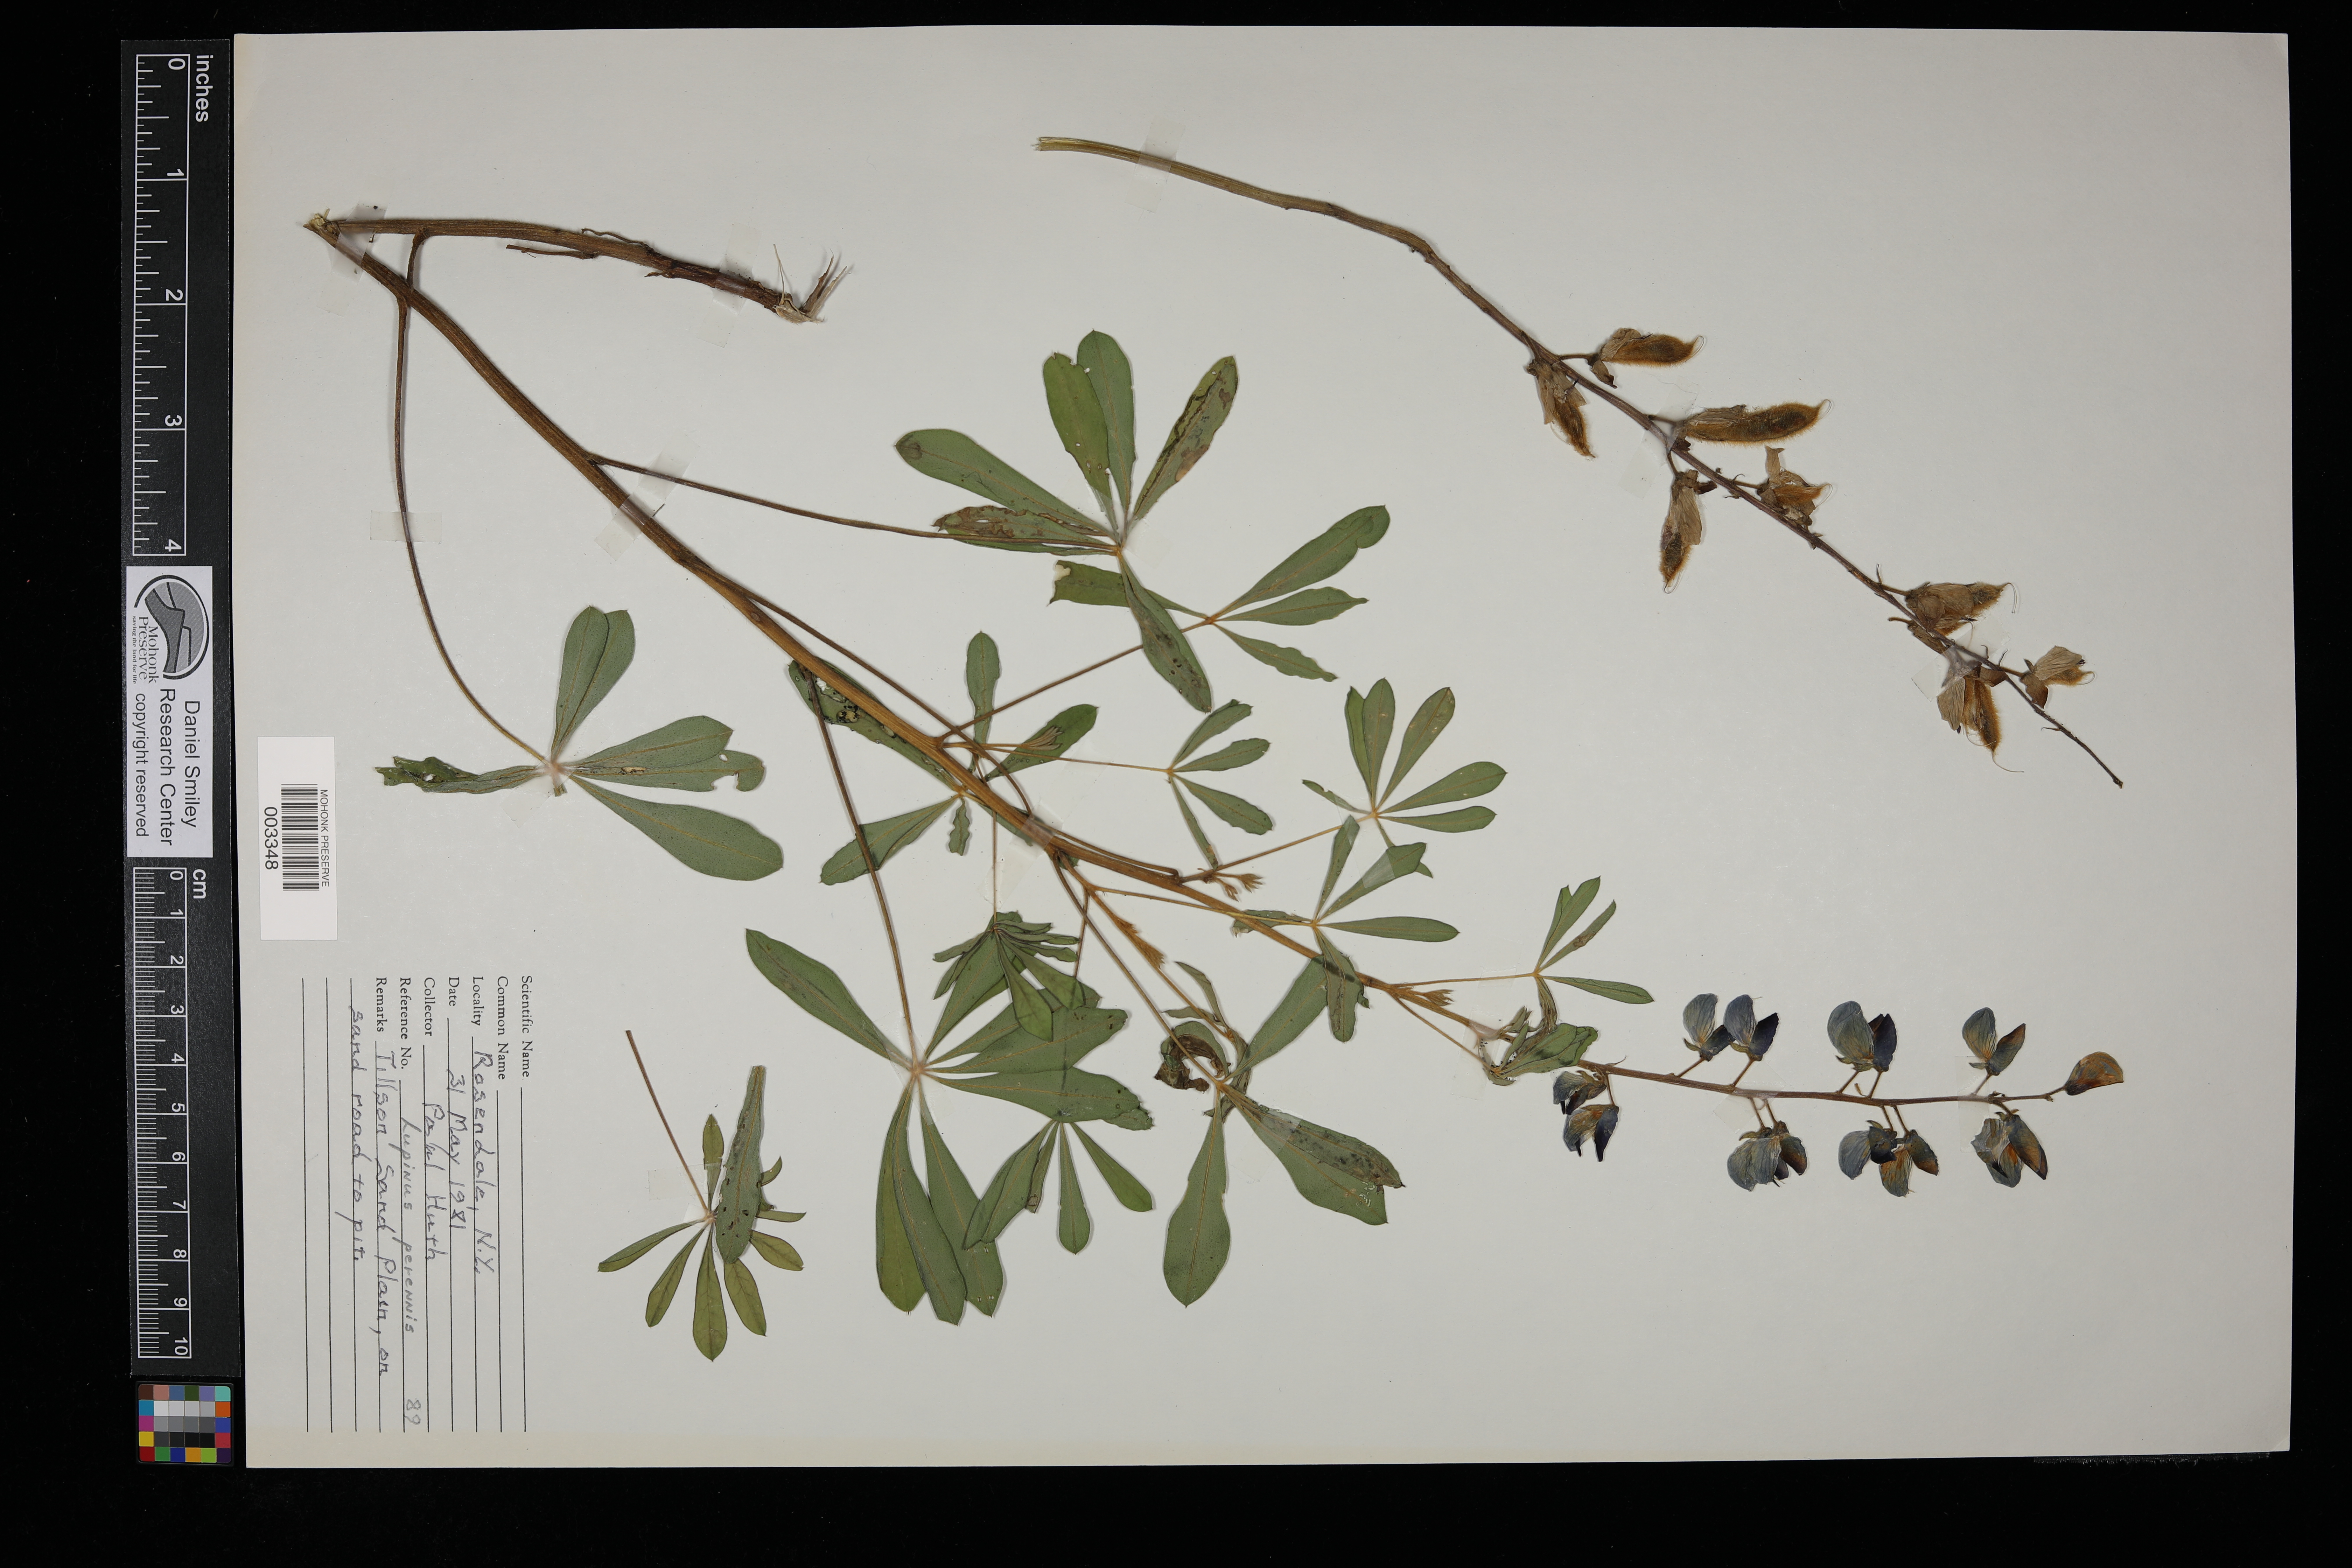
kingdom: Plantae
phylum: Tracheophyta
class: Magnoliopsida
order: Fabales
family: Fabaceae
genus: Lupinus
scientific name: Lupinus perennis
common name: Sundial lupine
